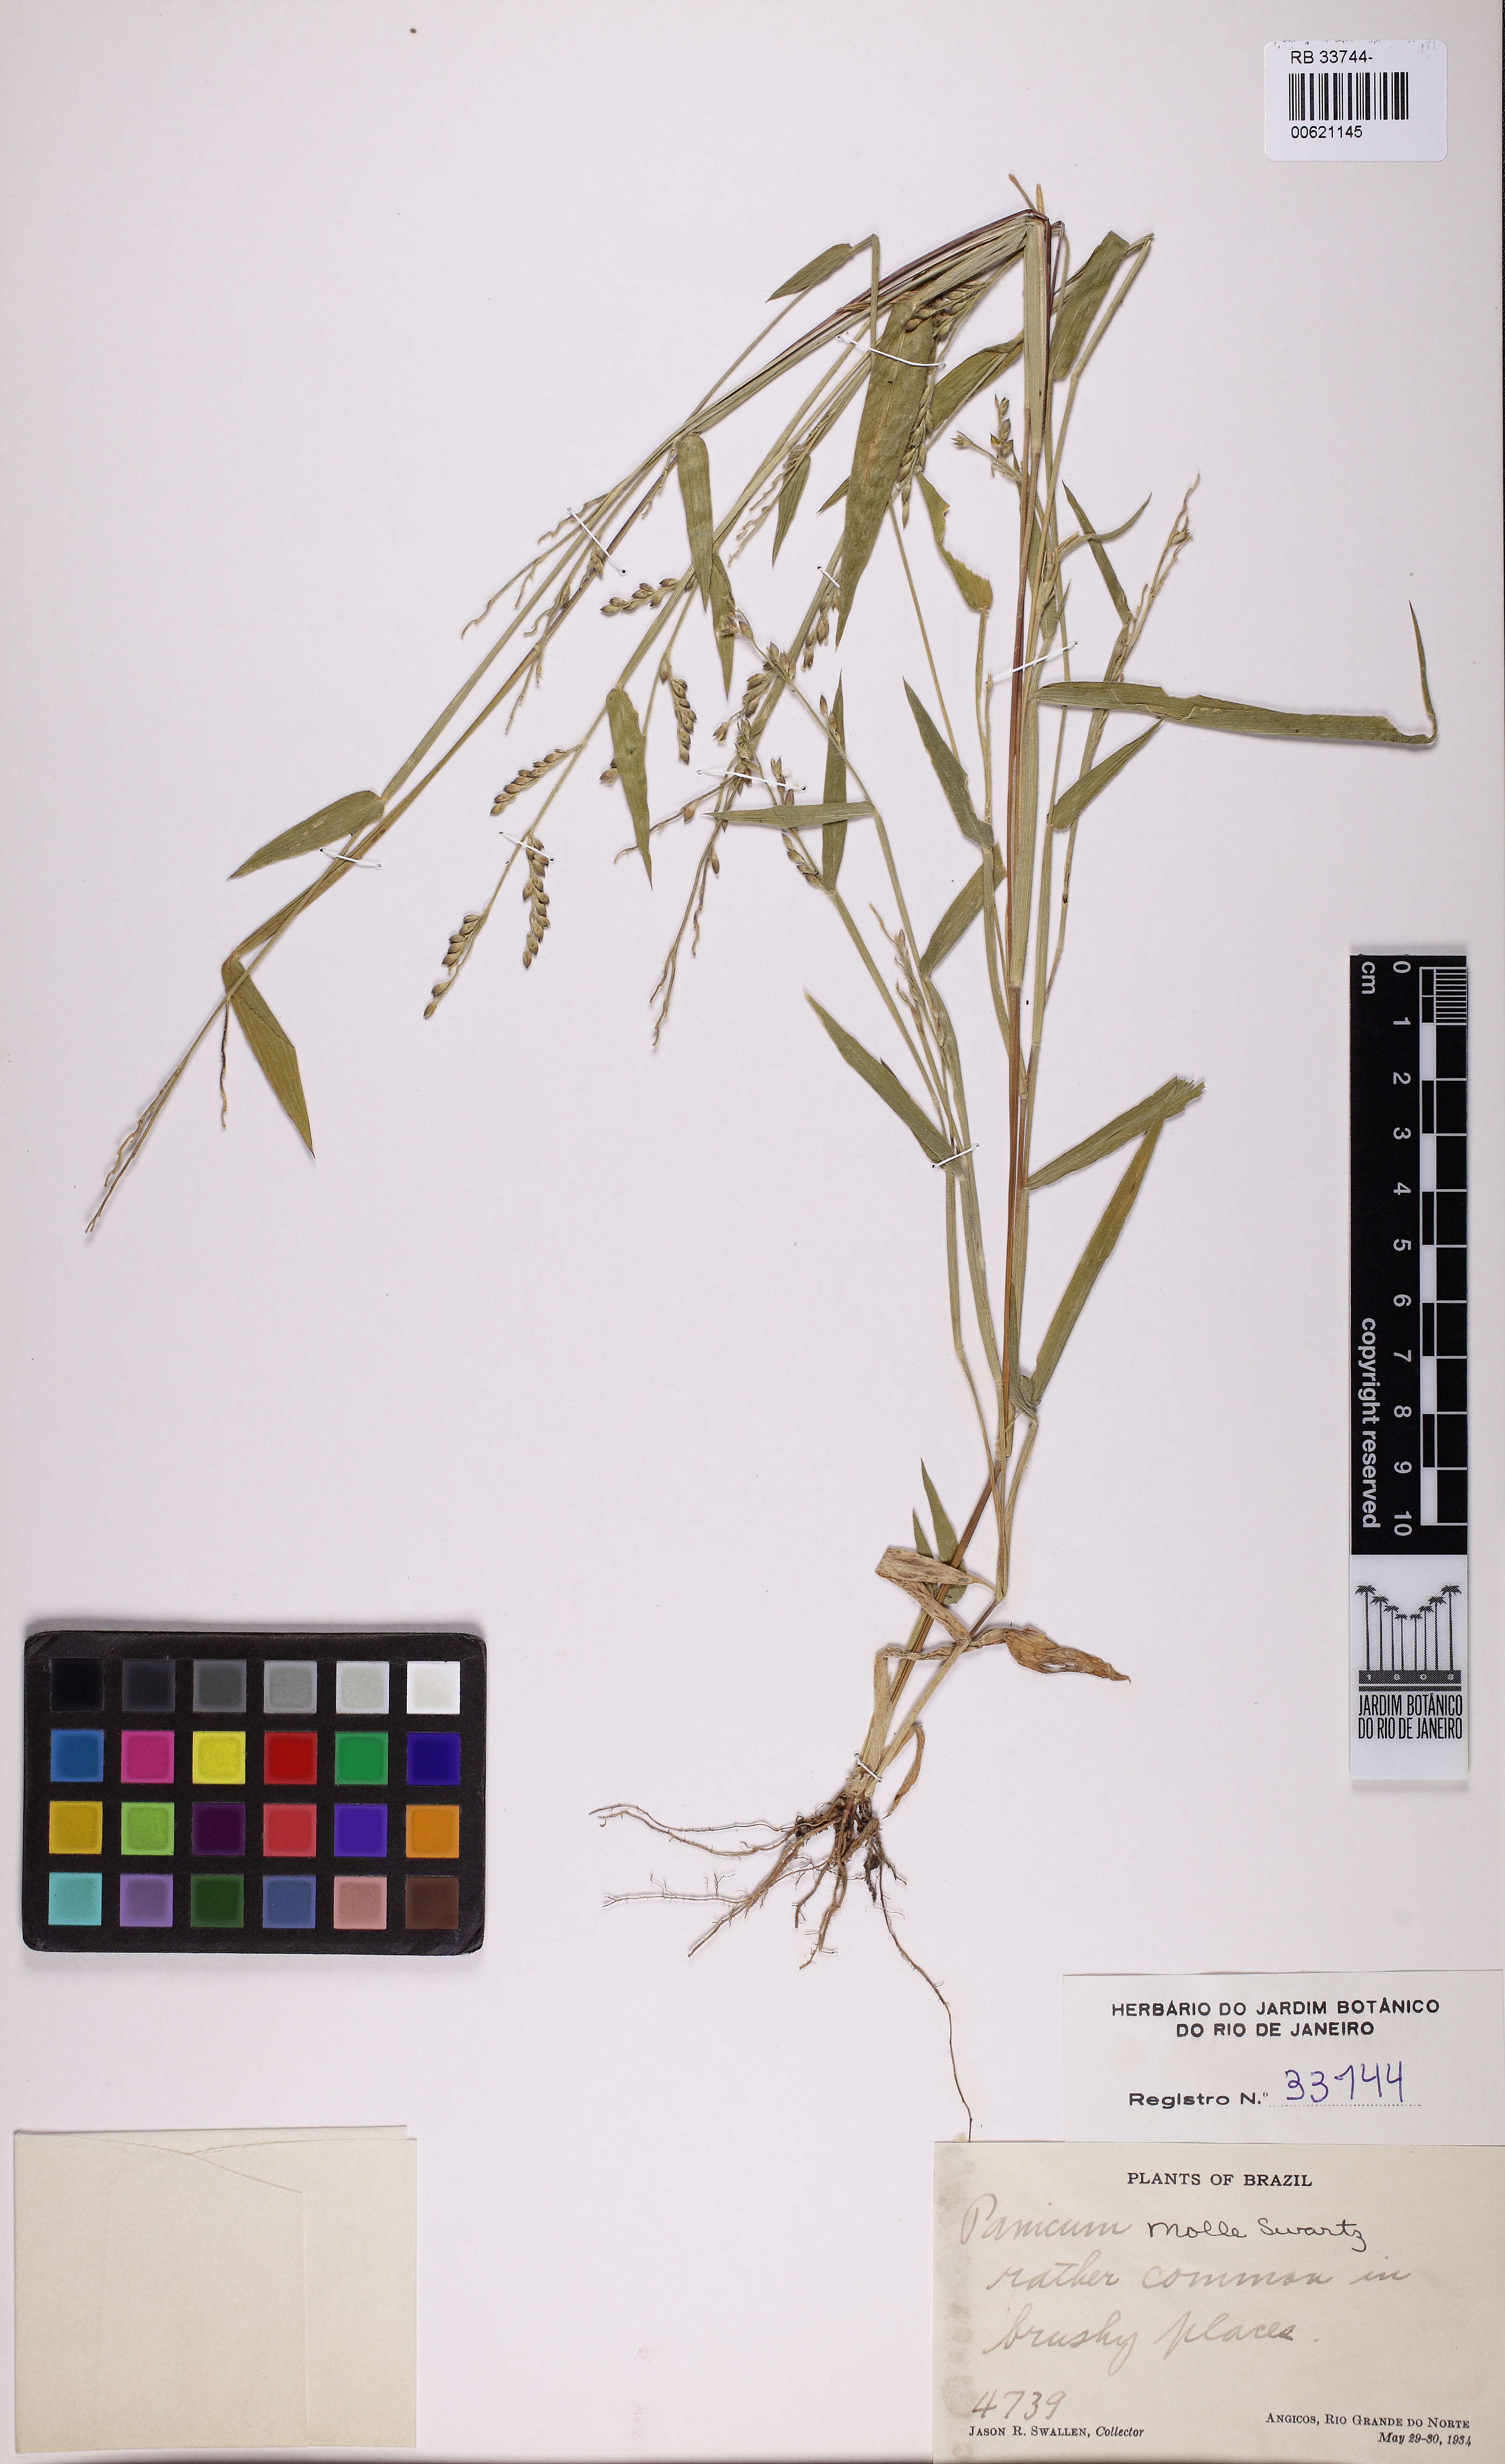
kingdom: Plantae
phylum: Tracheophyta
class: Liliopsida
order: Poales
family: Poaceae
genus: Urochloa
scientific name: Urochloa mollis
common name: Grass
